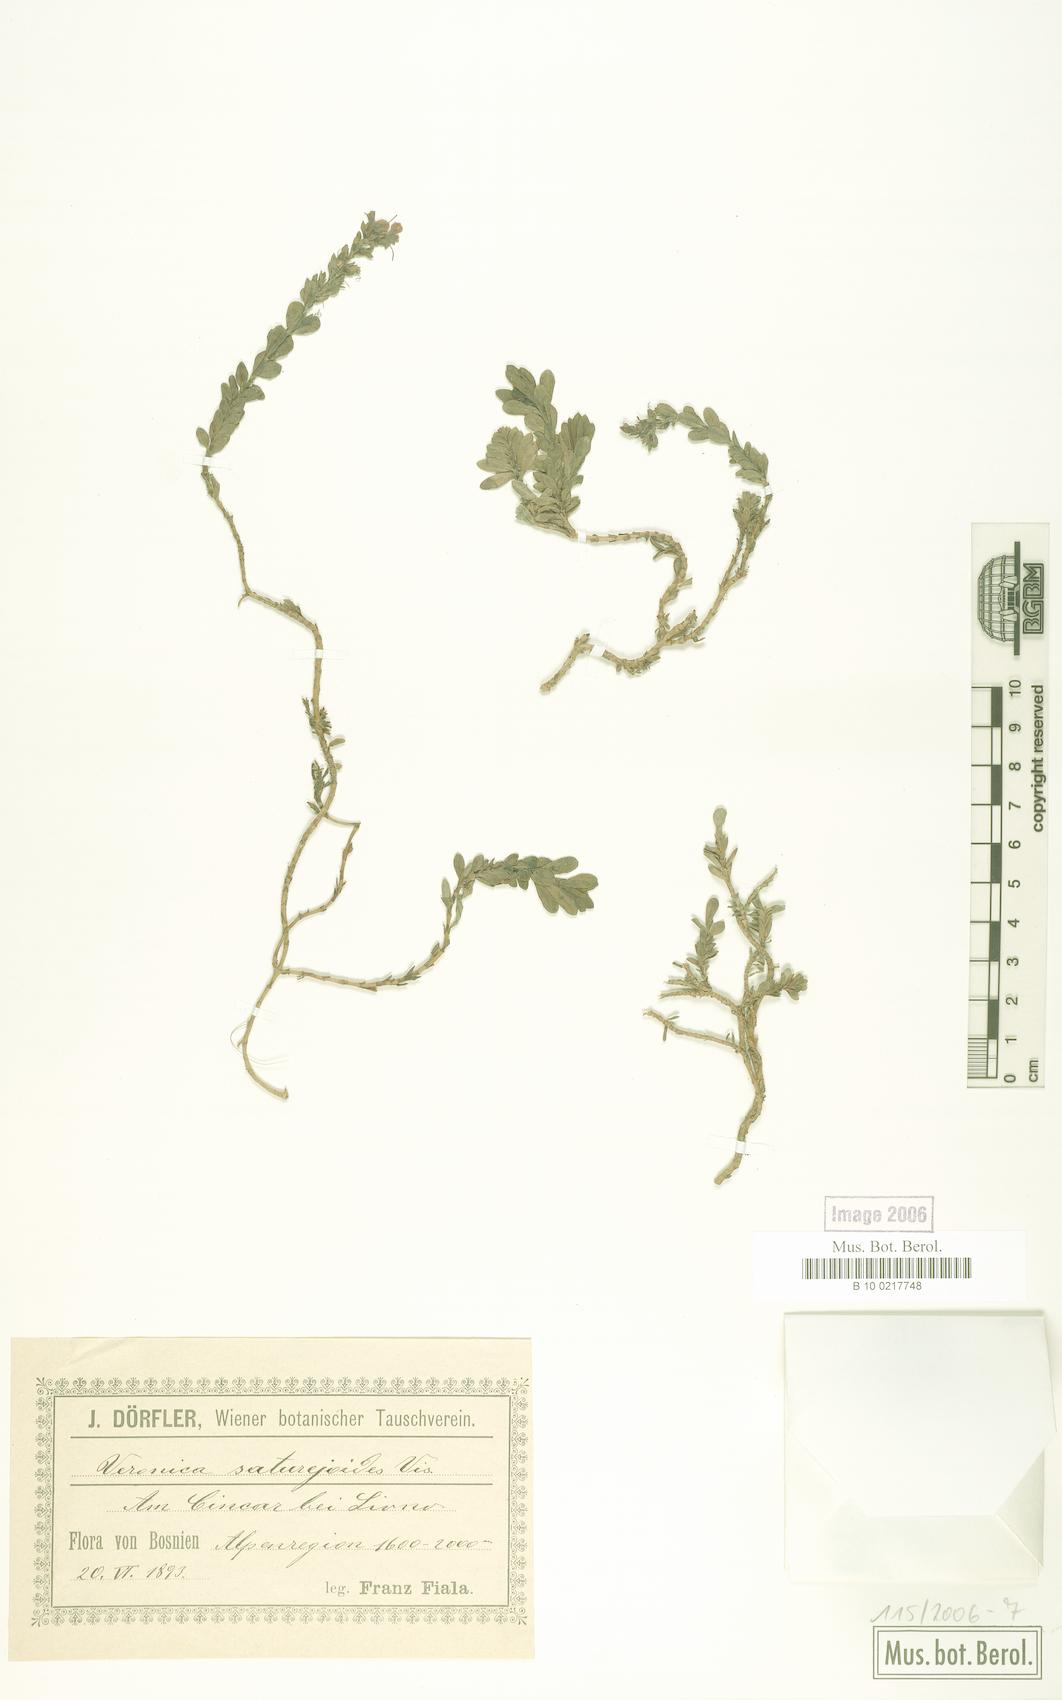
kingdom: Plantae
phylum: Tracheophyta
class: Magnoliopsida
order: Lamiales
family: Plantaginaceae
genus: Veronica
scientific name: Veronica saturejoides
